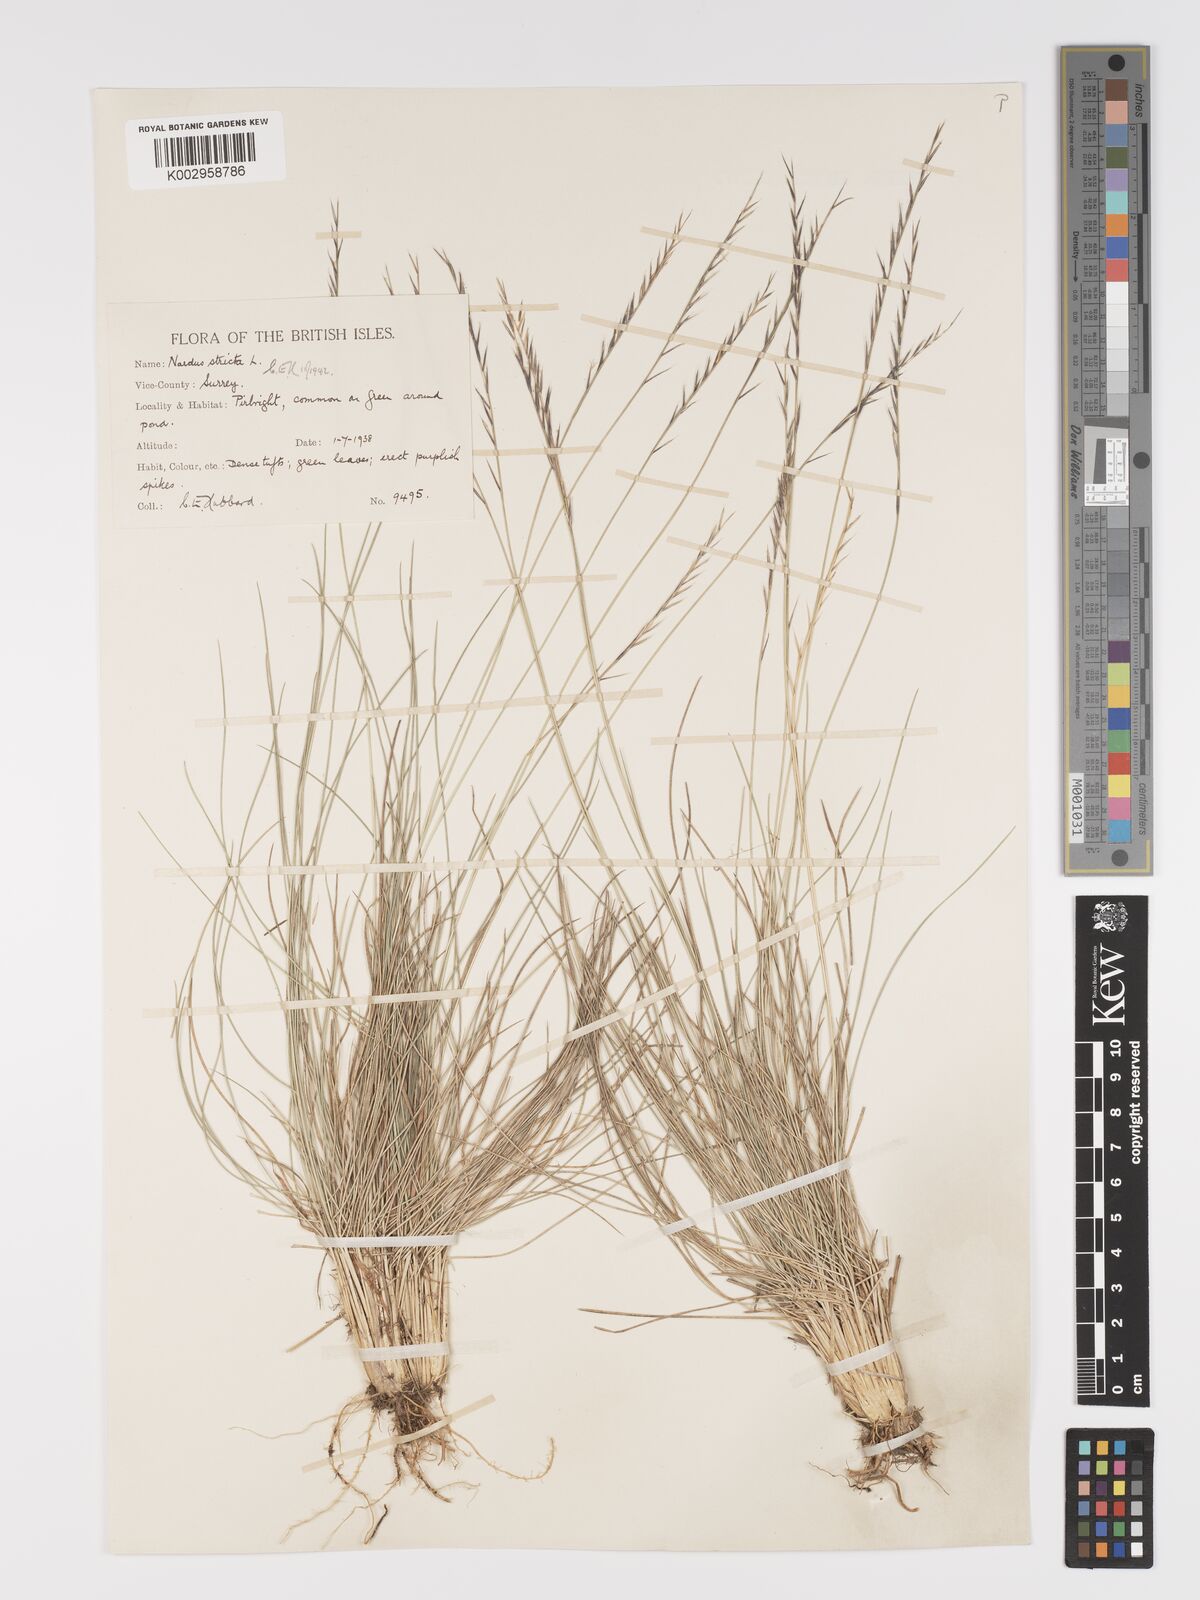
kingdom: Plantae
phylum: Tracheophyta
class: Liliopsida
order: Poales
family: Poaceae
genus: Nardus
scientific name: Nardus stricta
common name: Mat-grass
